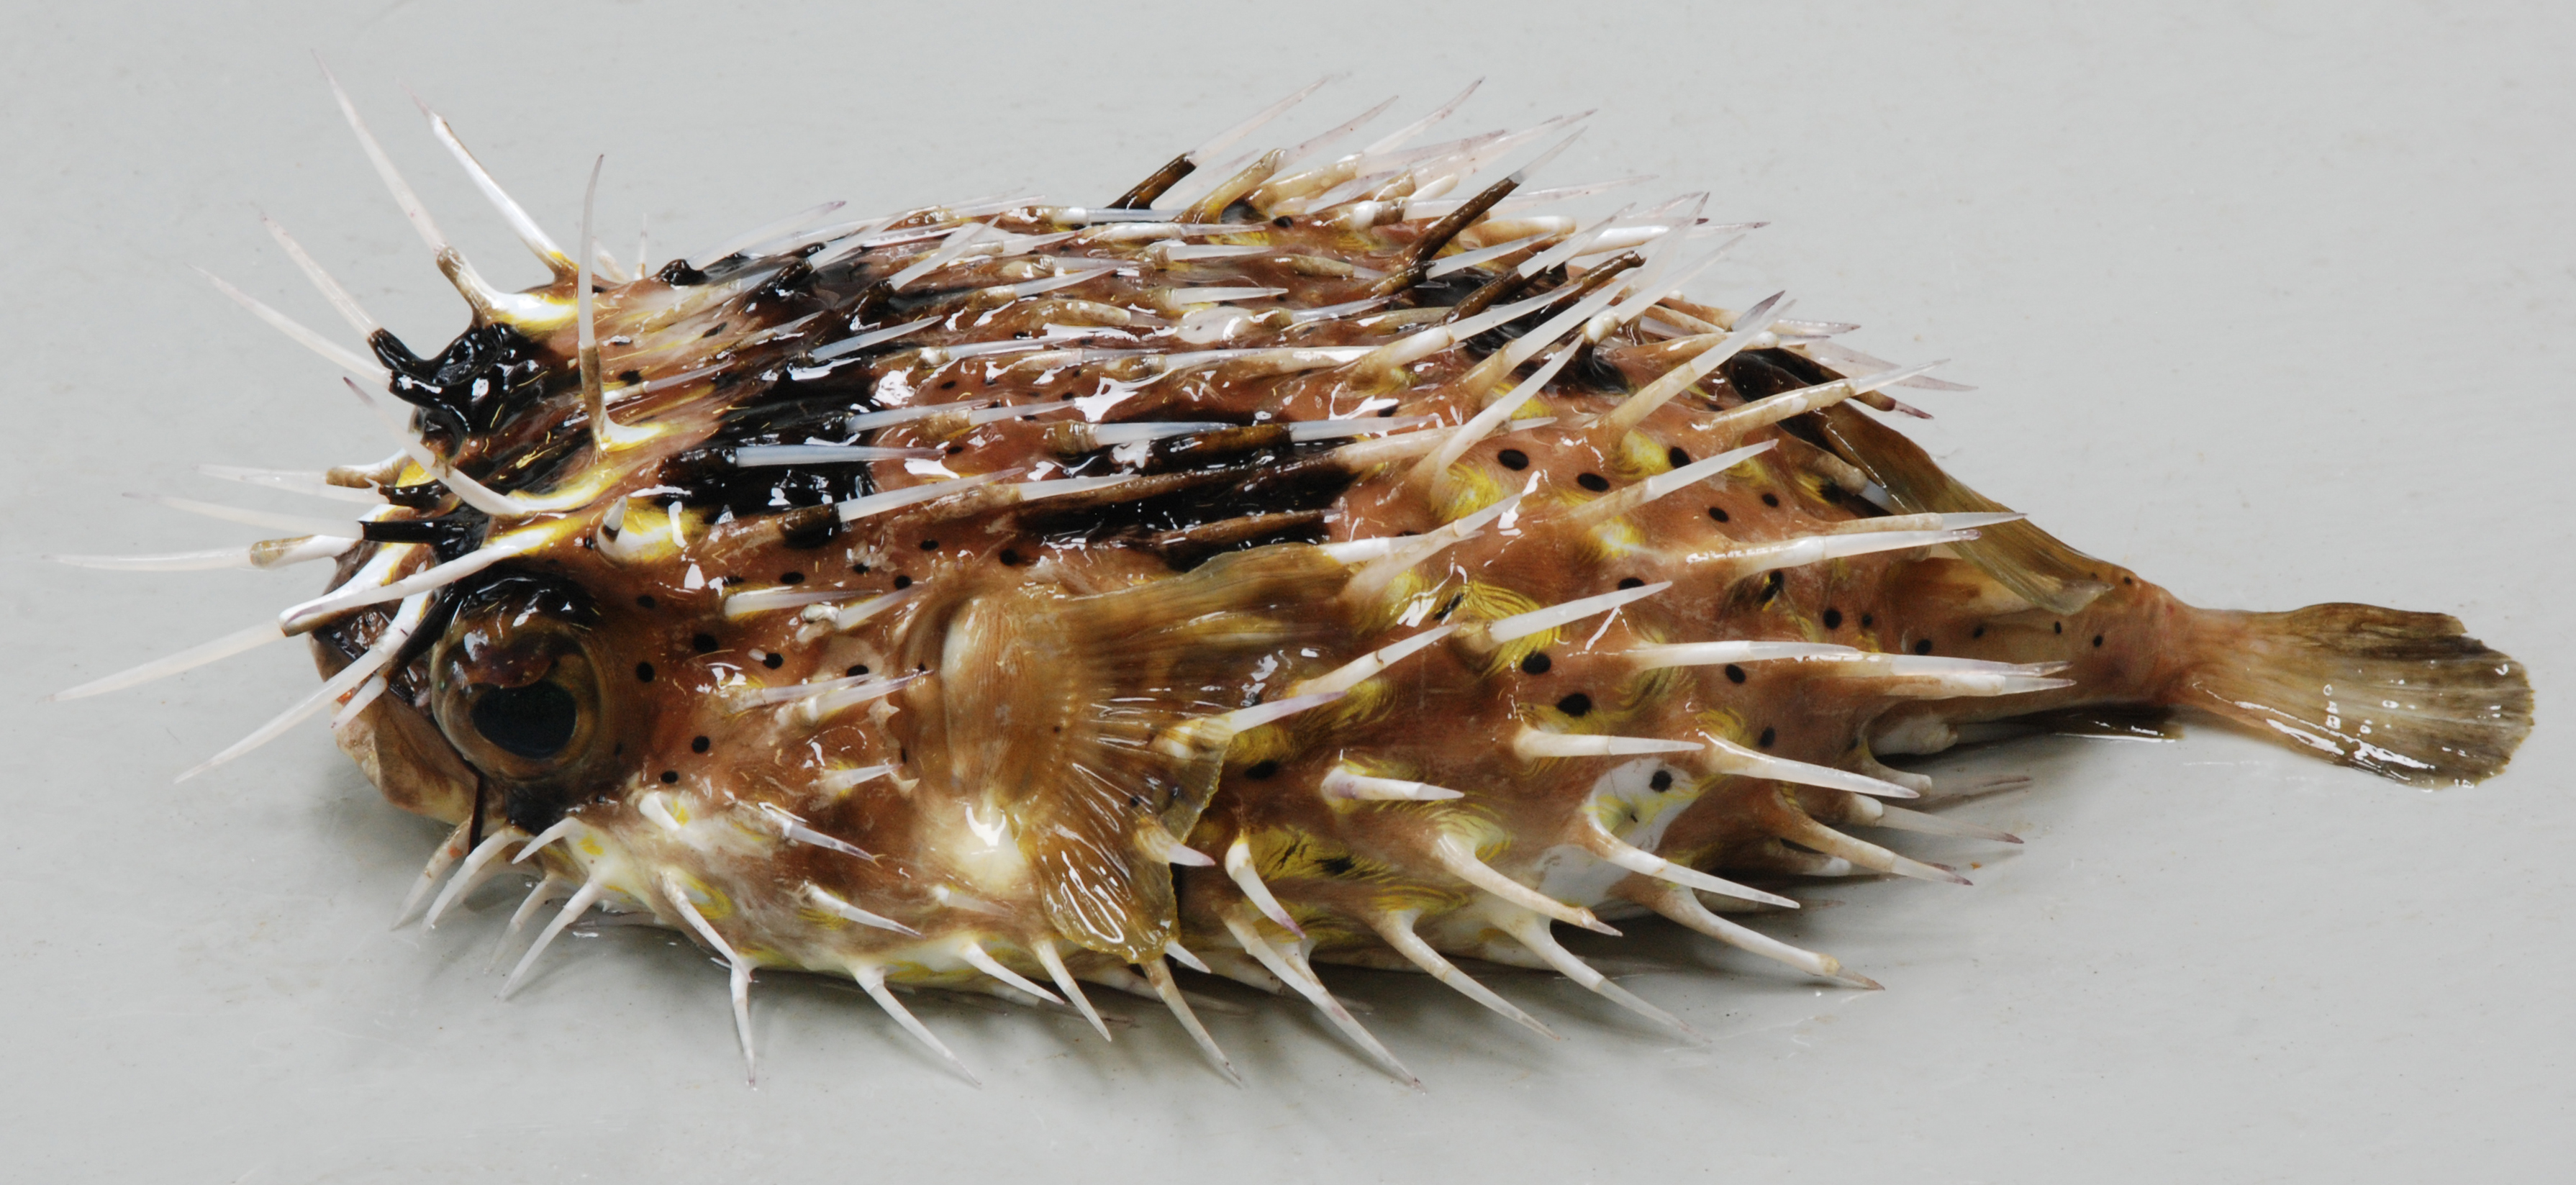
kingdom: Animalia
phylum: Chordata
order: Tetraodontiformes
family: Diodontidae
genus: Diodon
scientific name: Diodon holocanthus
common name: Balloonfish
